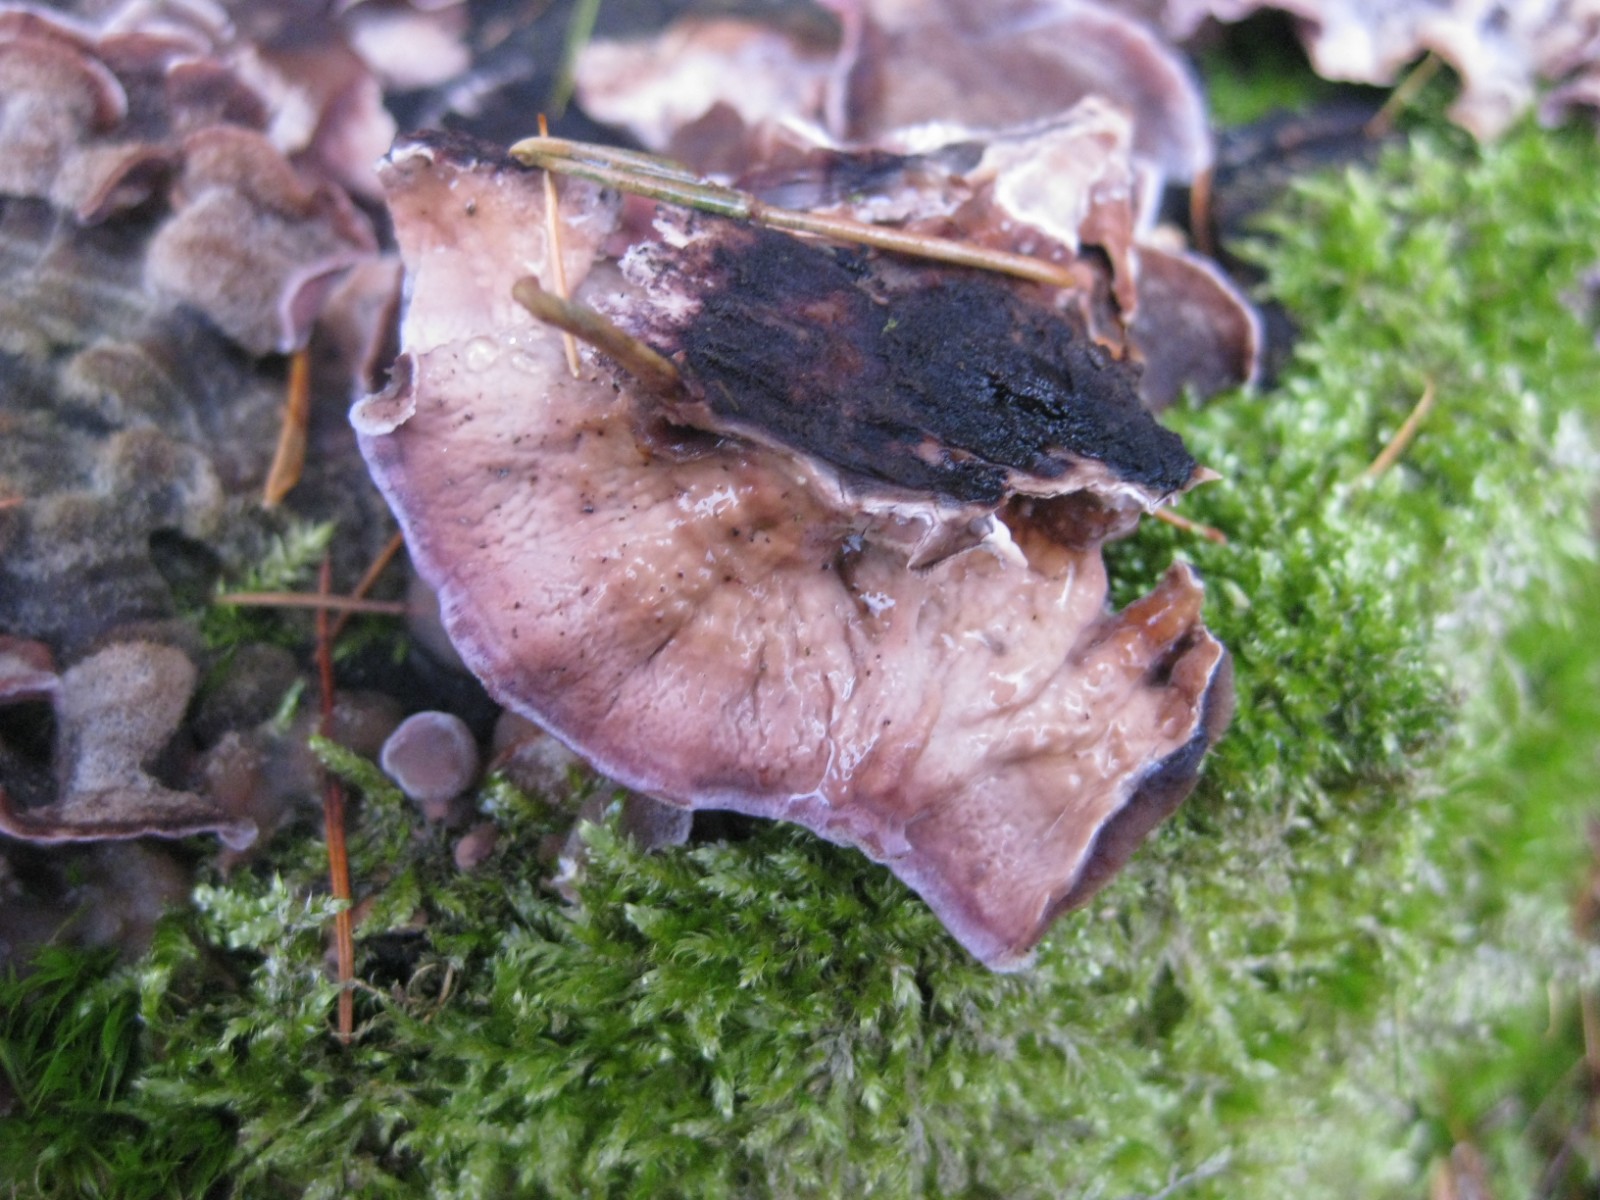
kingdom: Fungi
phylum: Basidiomycota
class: Agaricomycetes
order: Agaricales
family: Cyphellaceae
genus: Chondrostereum
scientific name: Chondrostereum purpureum
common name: purpurlædersvamp
